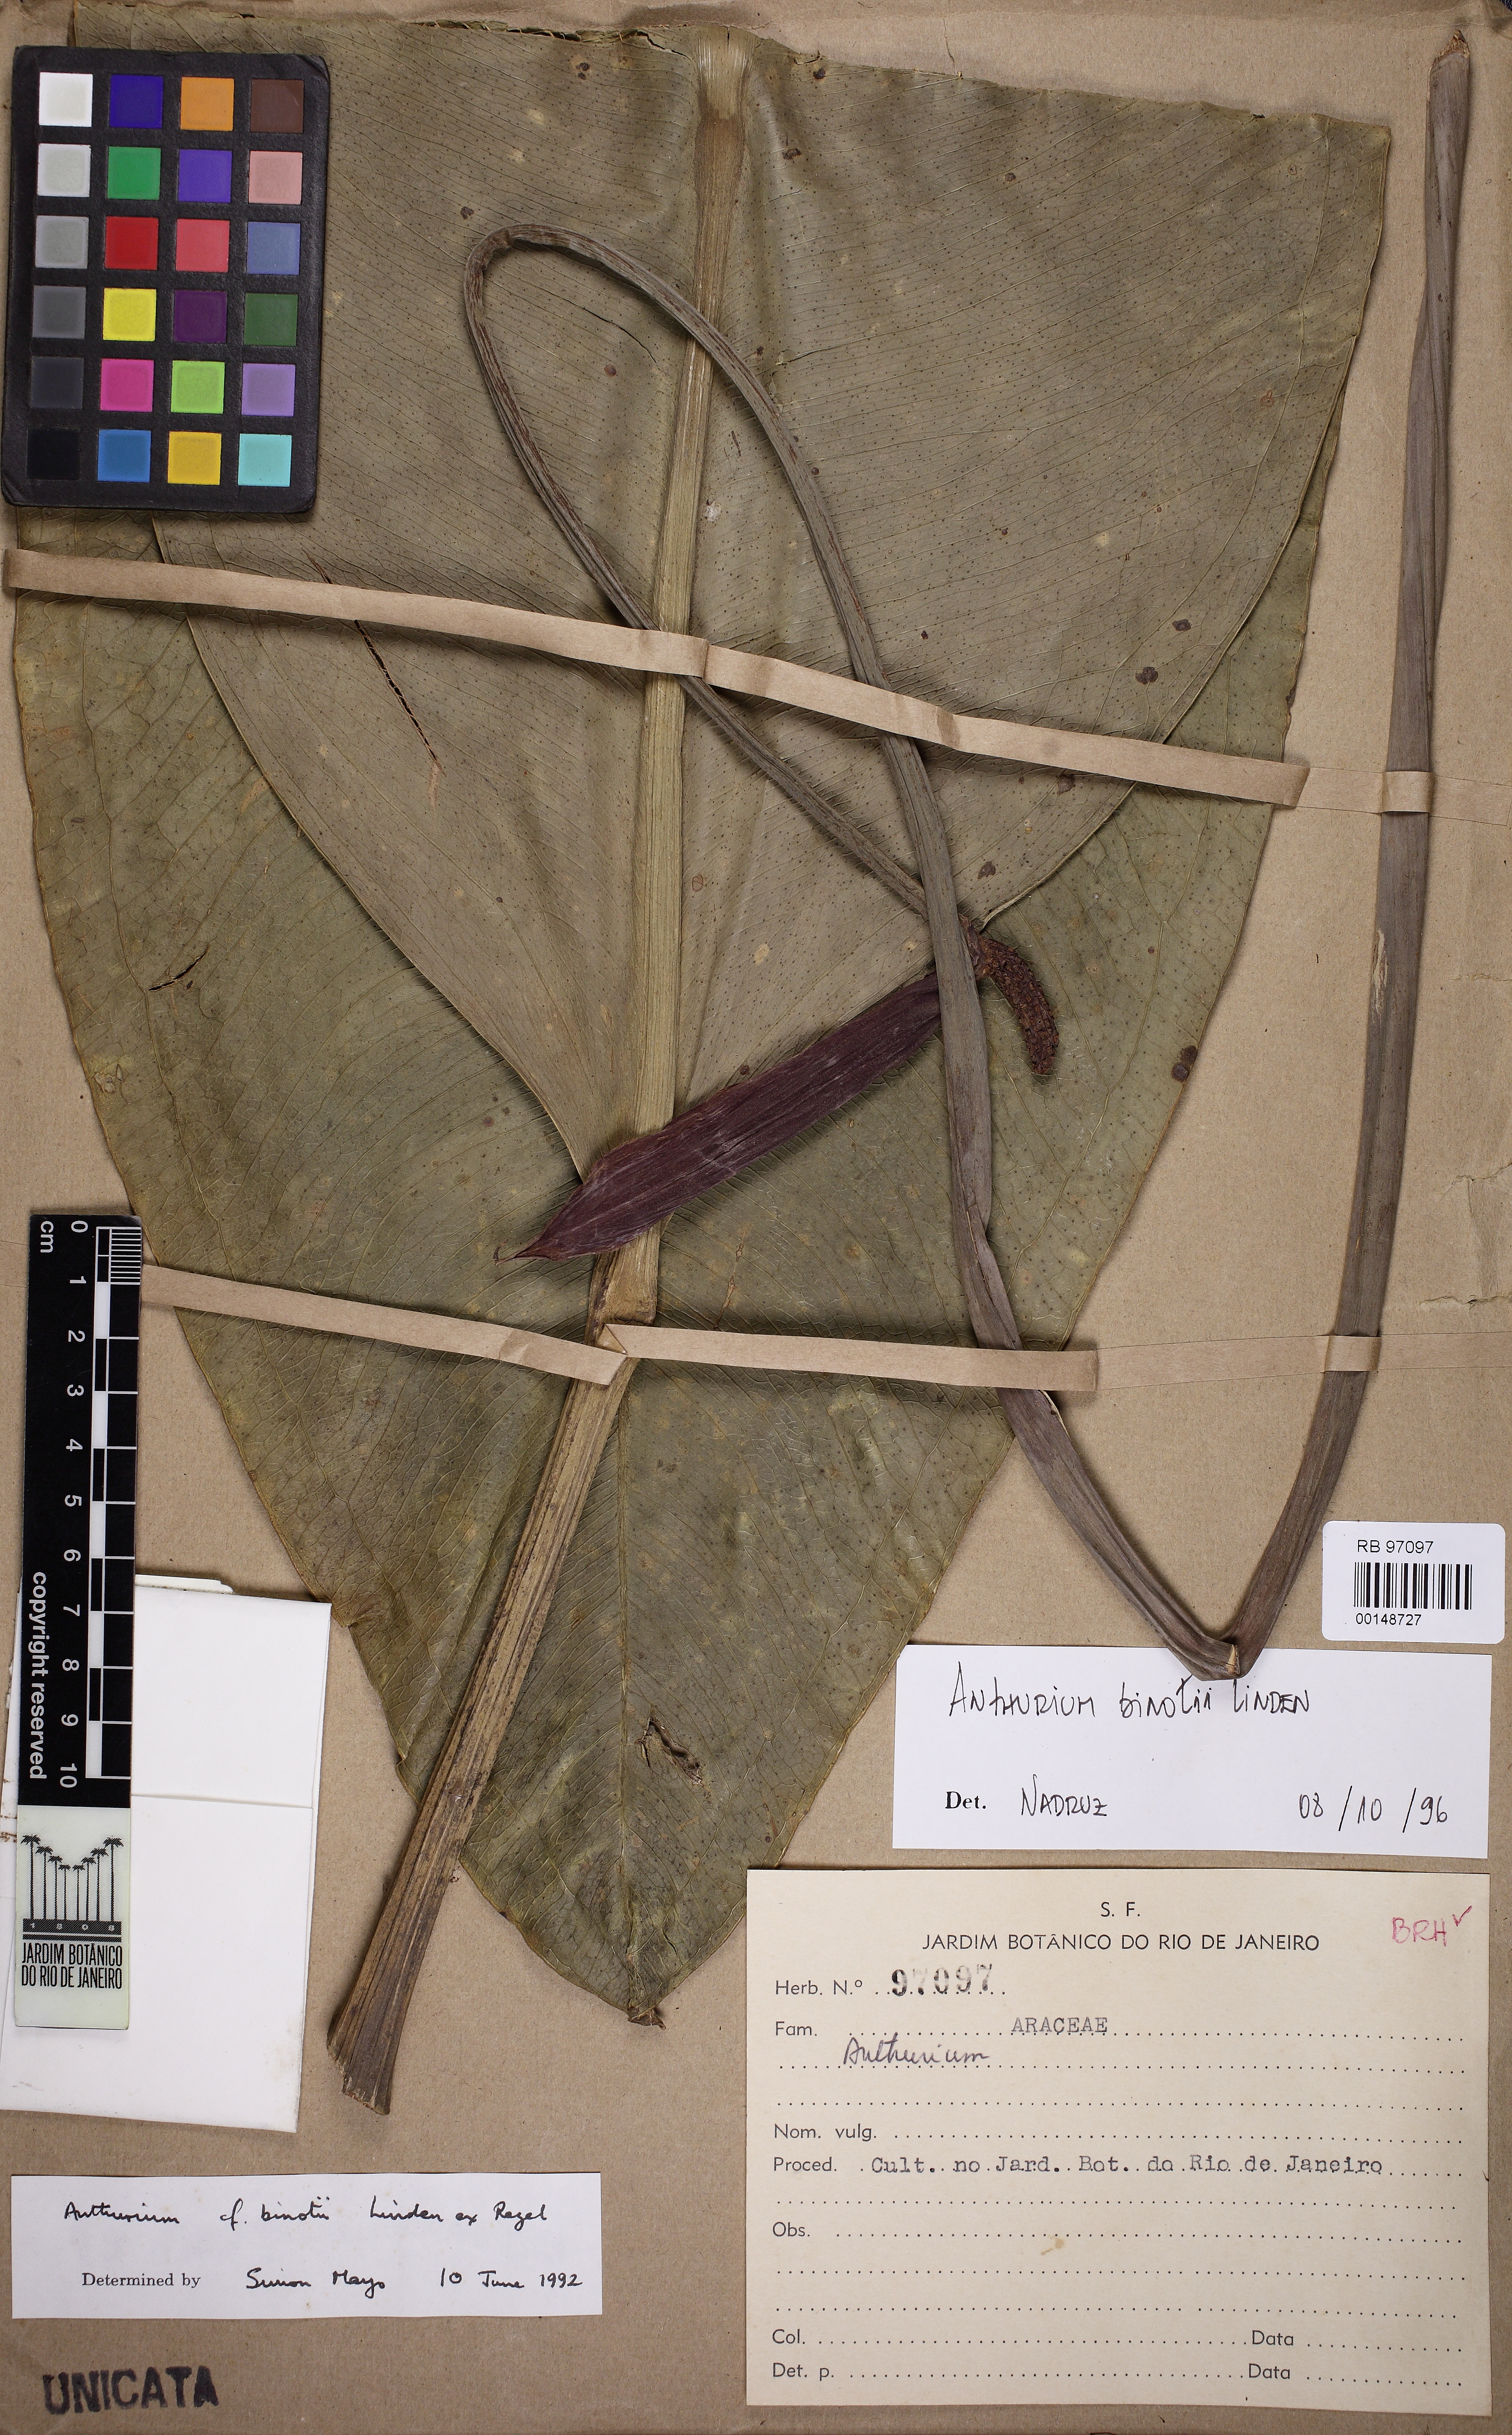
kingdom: Plantae
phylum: Tracheophyta
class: Liliopsida
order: Alismatales
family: Araceae
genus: Anthurium
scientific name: Anthurium binotii
